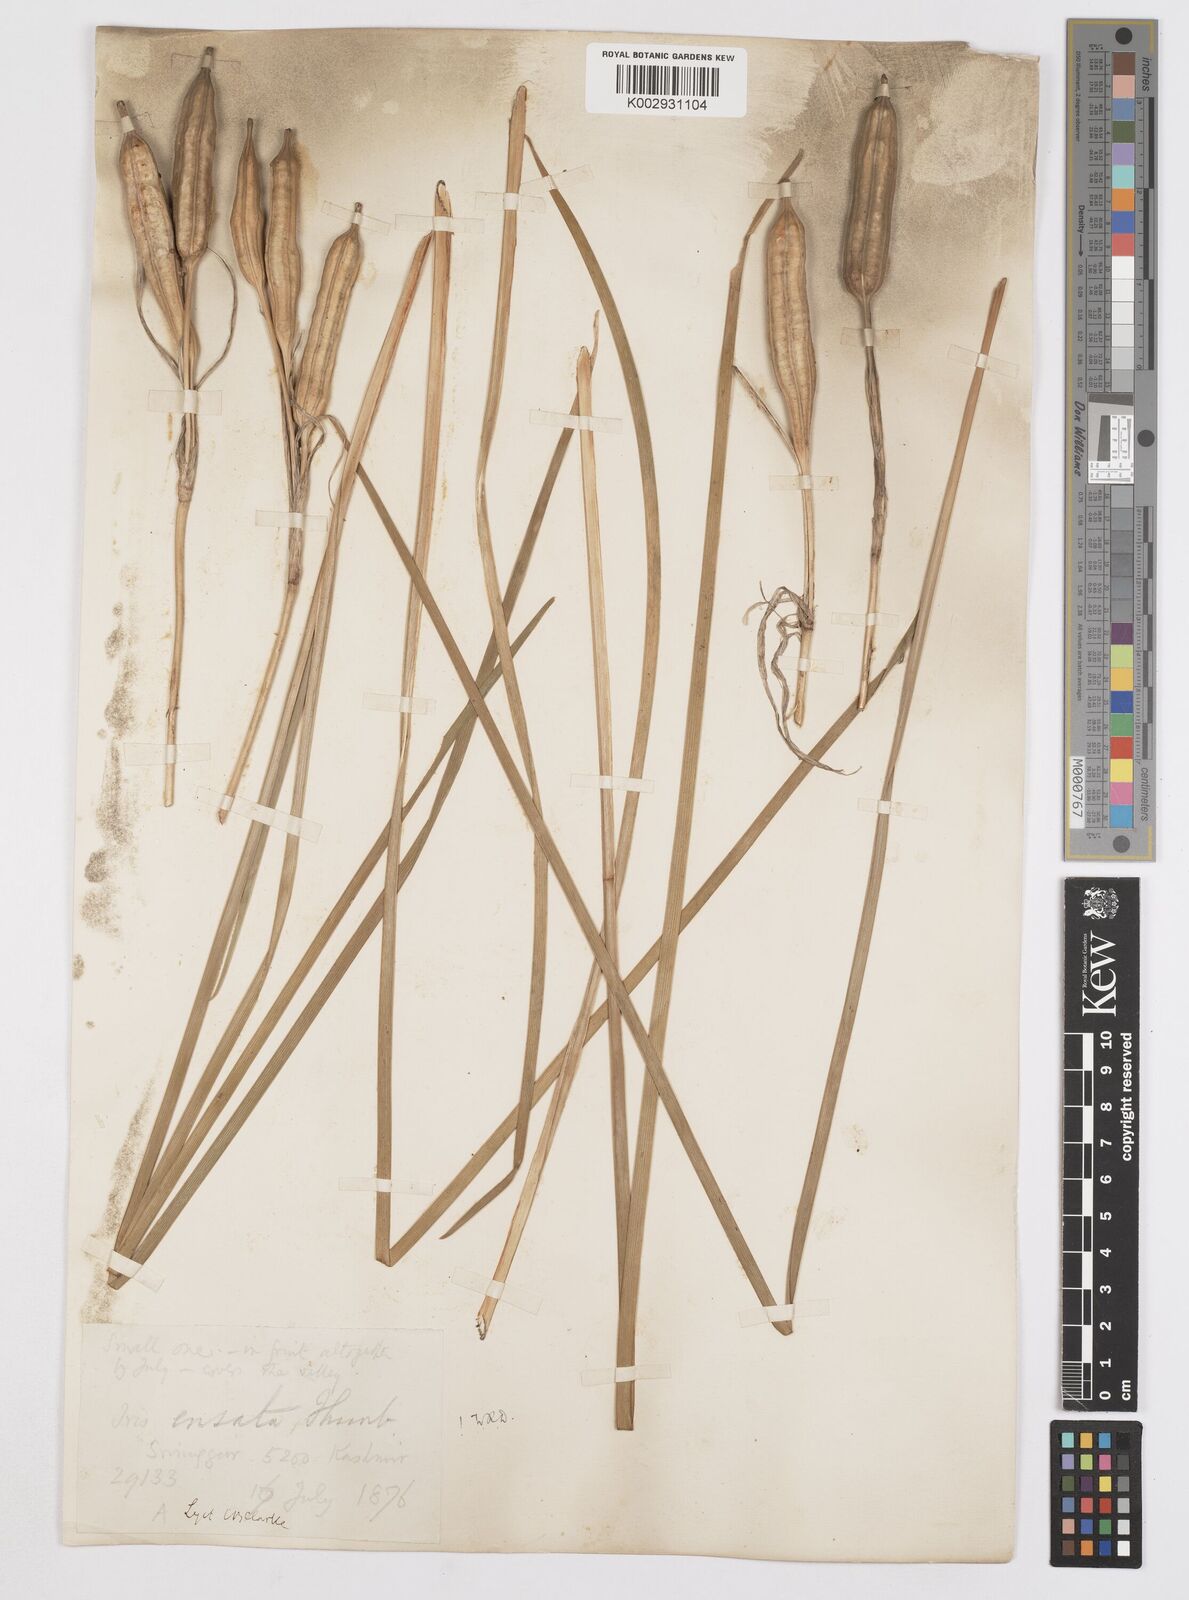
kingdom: Plantae
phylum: Tracheophyta
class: Liliopsida
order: Asparagales
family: Iridaceae
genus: Iris
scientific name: Iris ensata
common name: Beaked iris
